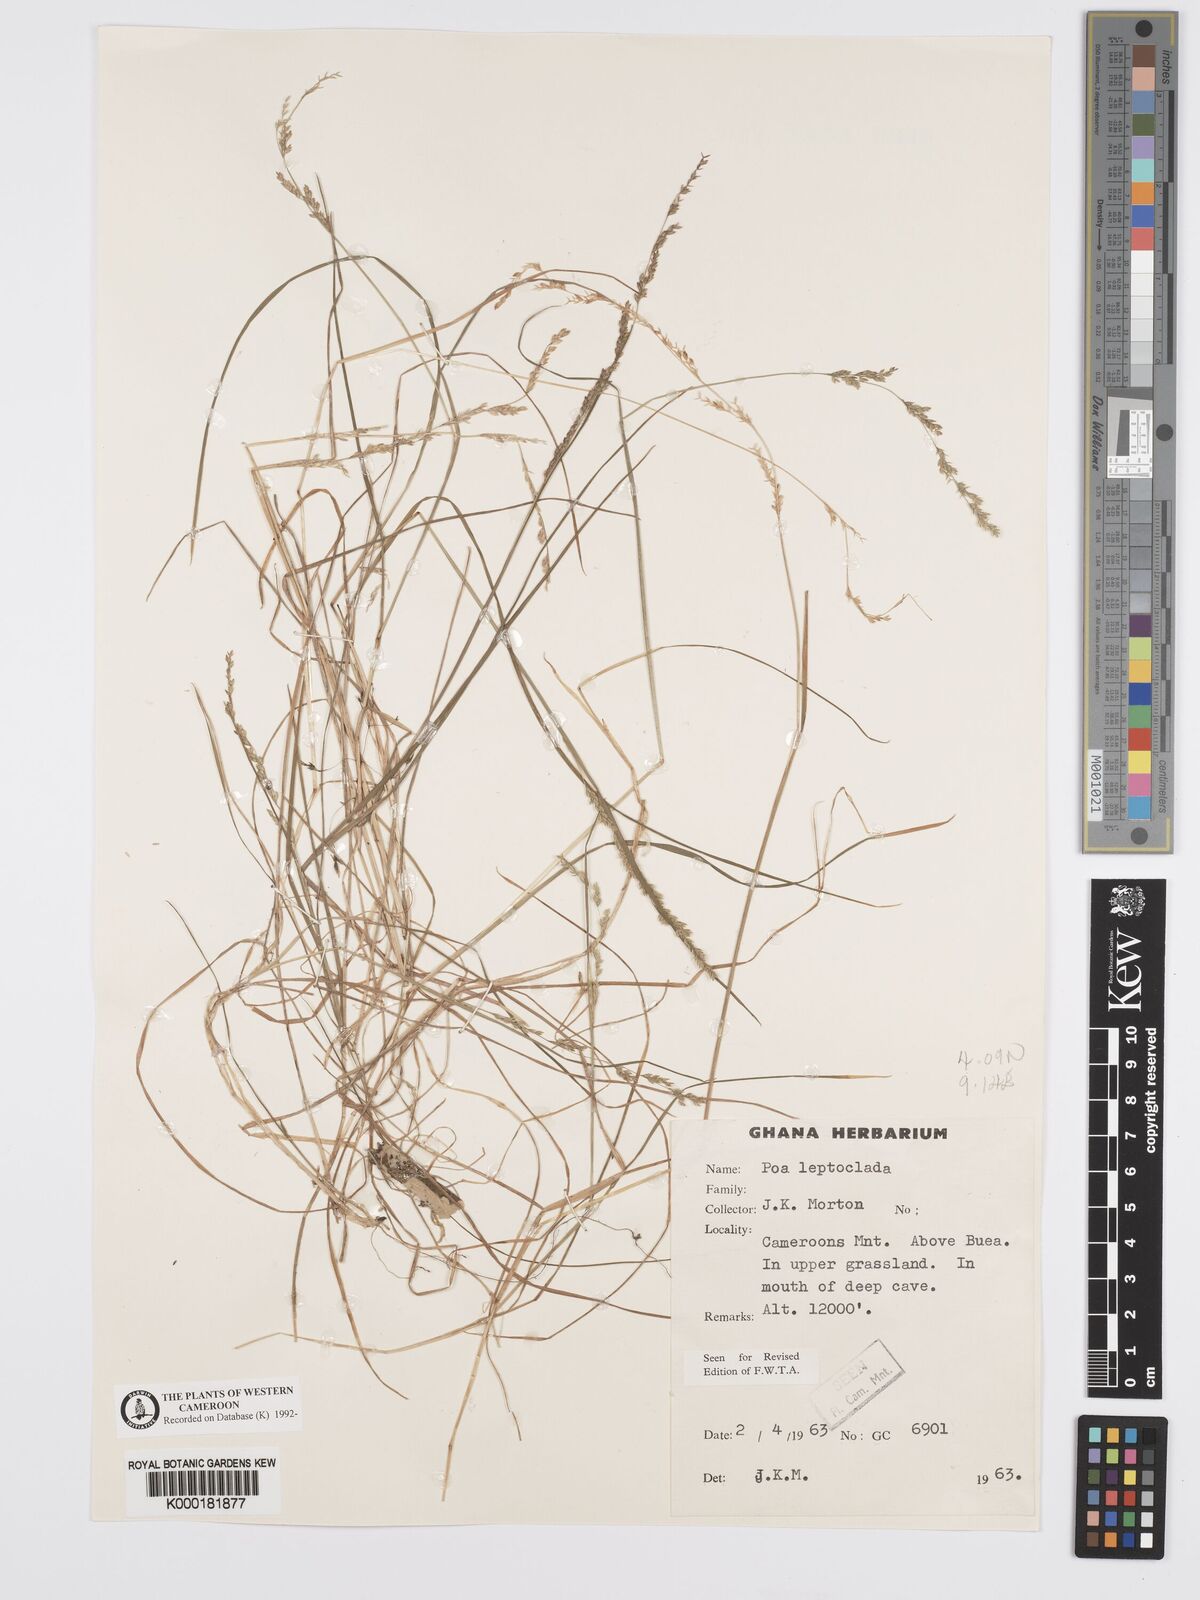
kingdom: Plantae
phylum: Tracheophyta
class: Liliopsida
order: Poales
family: Poaceae
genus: Poa
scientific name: Poa leptoclada
